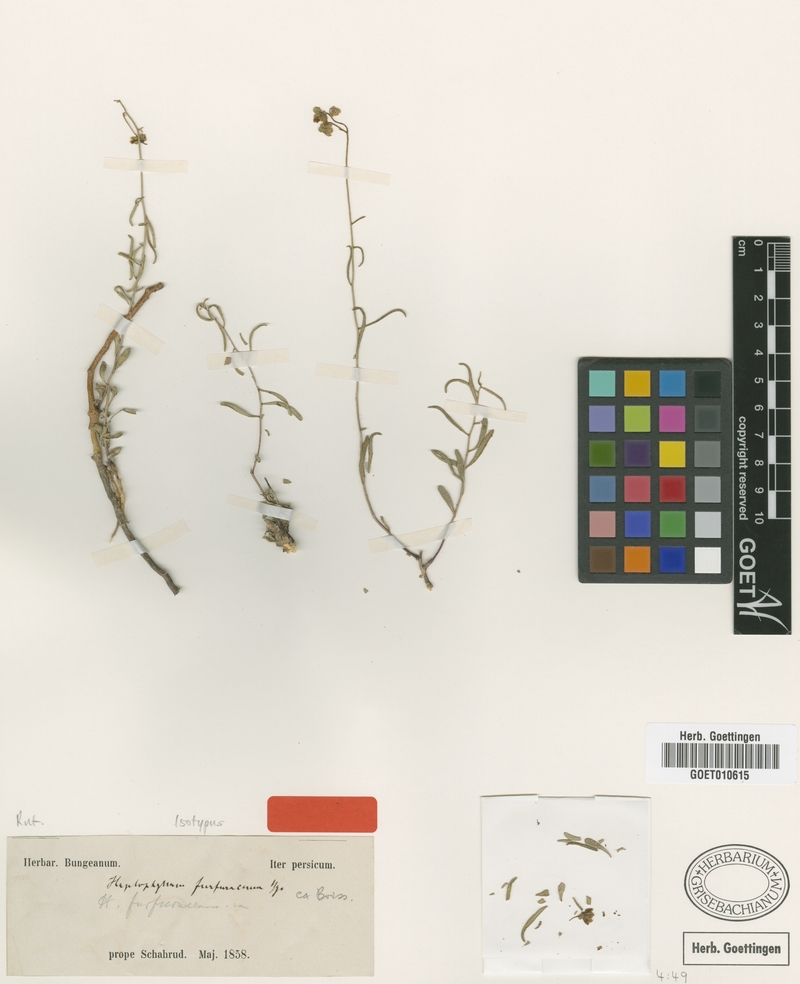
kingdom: Plantae
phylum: Tracheophyta
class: Magnoliopsida
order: Sapindales
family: Rutaceae
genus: Haplophyllum
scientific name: Haplophyllum furfuraceum
